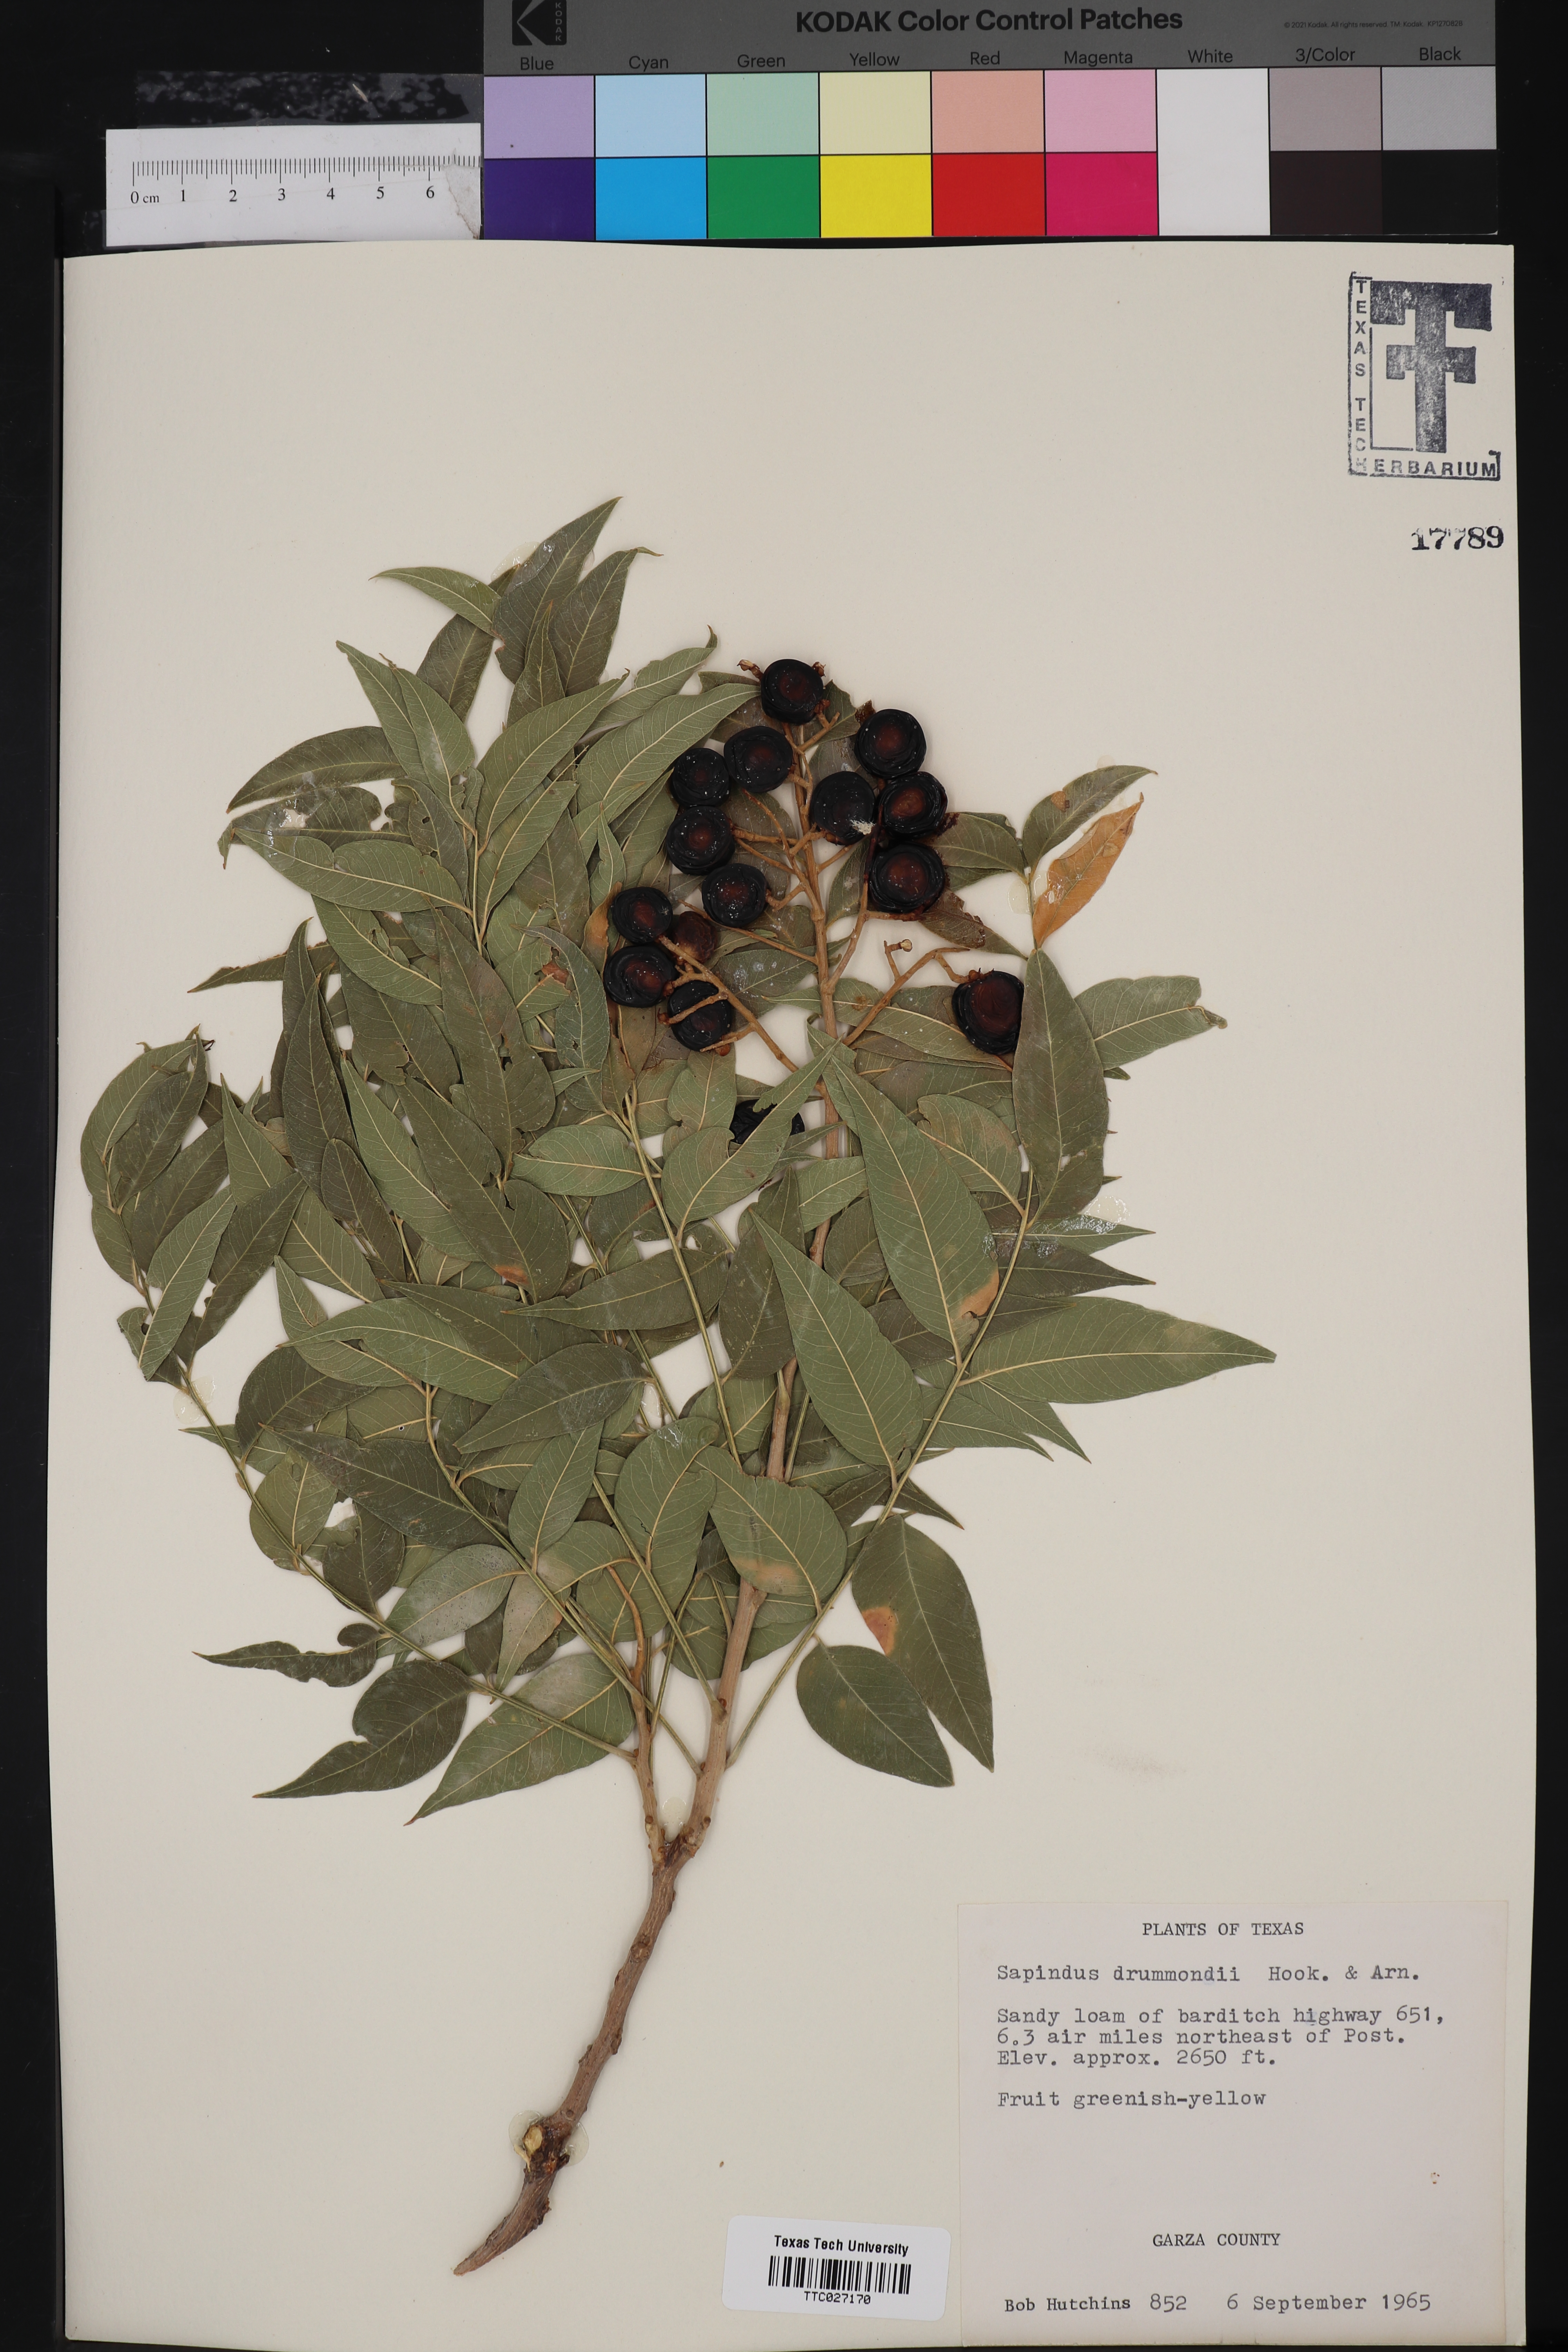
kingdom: Plantae
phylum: Tracheophyta
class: Magnoliopsida
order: Sapindales
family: Sapindaceae
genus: Sapindus
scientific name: Sapindus drummondii
